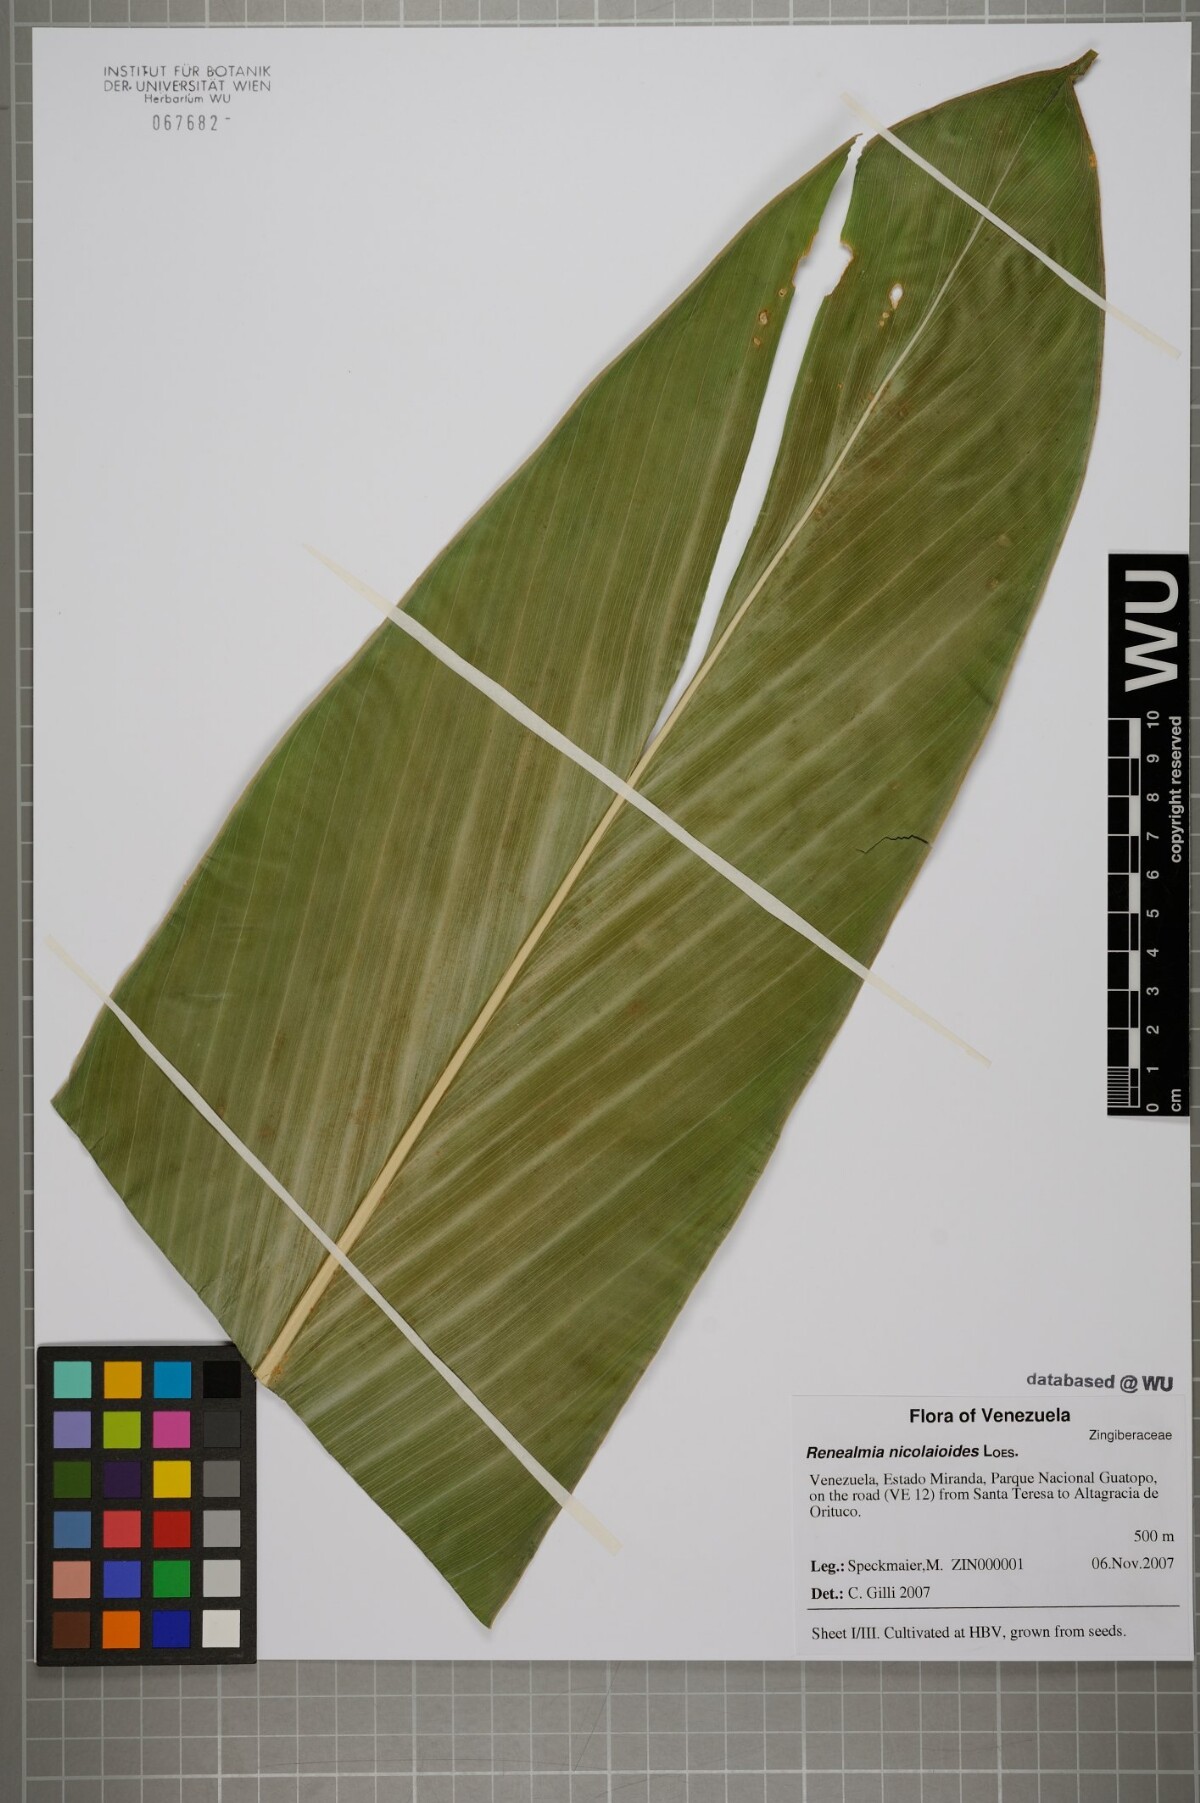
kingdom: Plantae
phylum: Tracheophyta
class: Liliopsida
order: Zingiberales
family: Zingiberaceae
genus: Renealmia
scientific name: Renealmia nicolaioides
